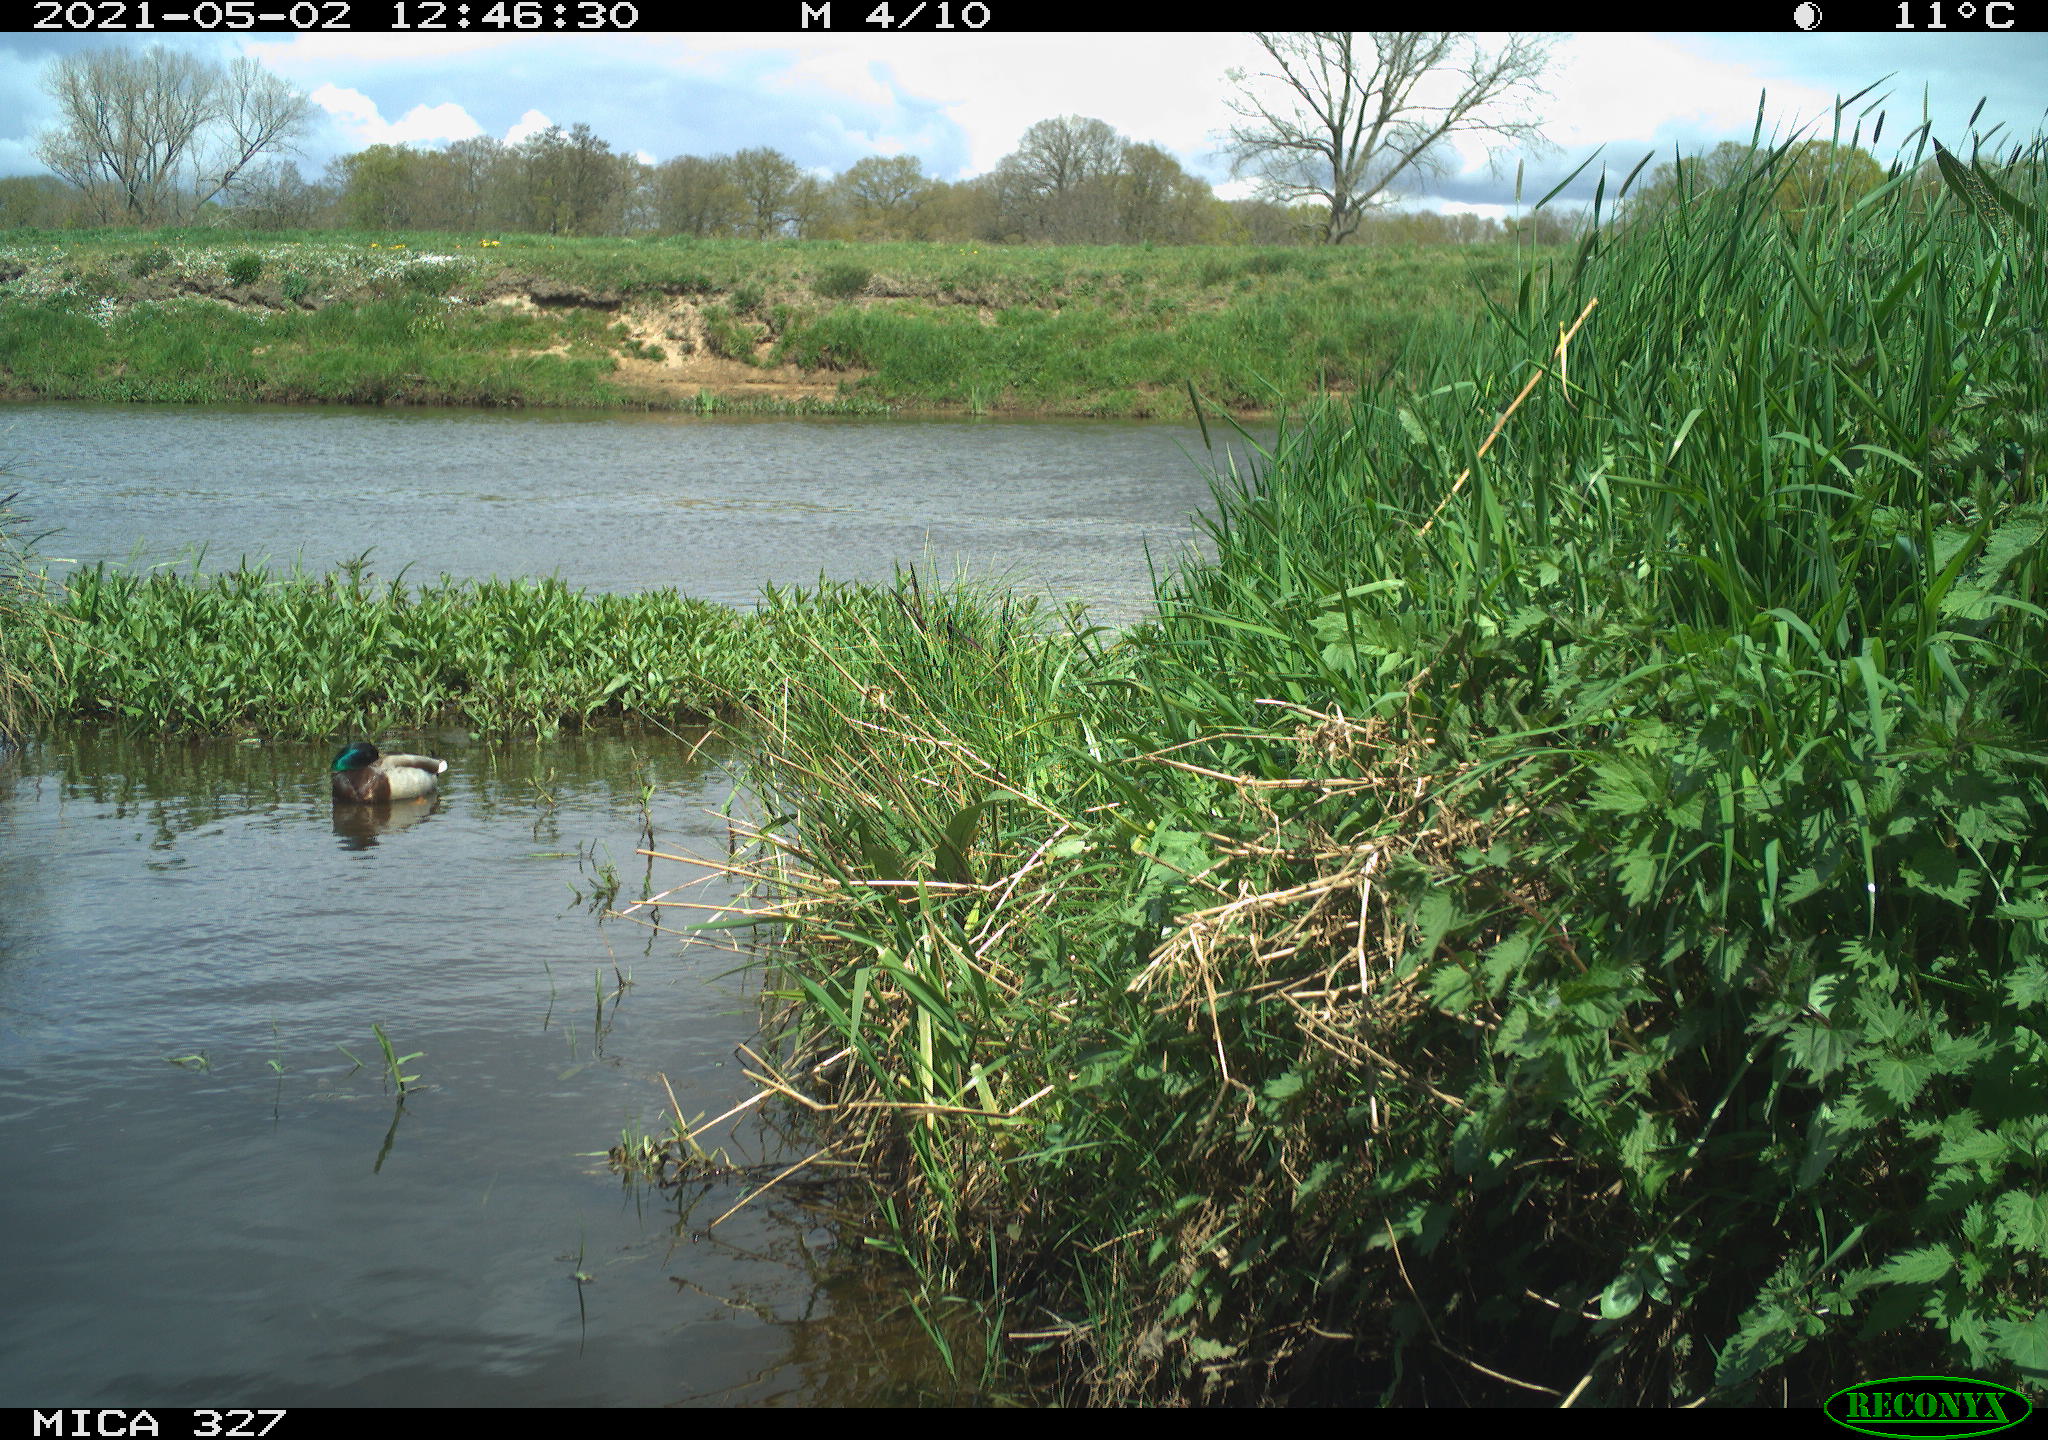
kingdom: Animalia
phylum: Chordata
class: Aves
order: Anseriformes
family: Anatidae
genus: Anas
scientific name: Anas platyrhynchos
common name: Mallard
